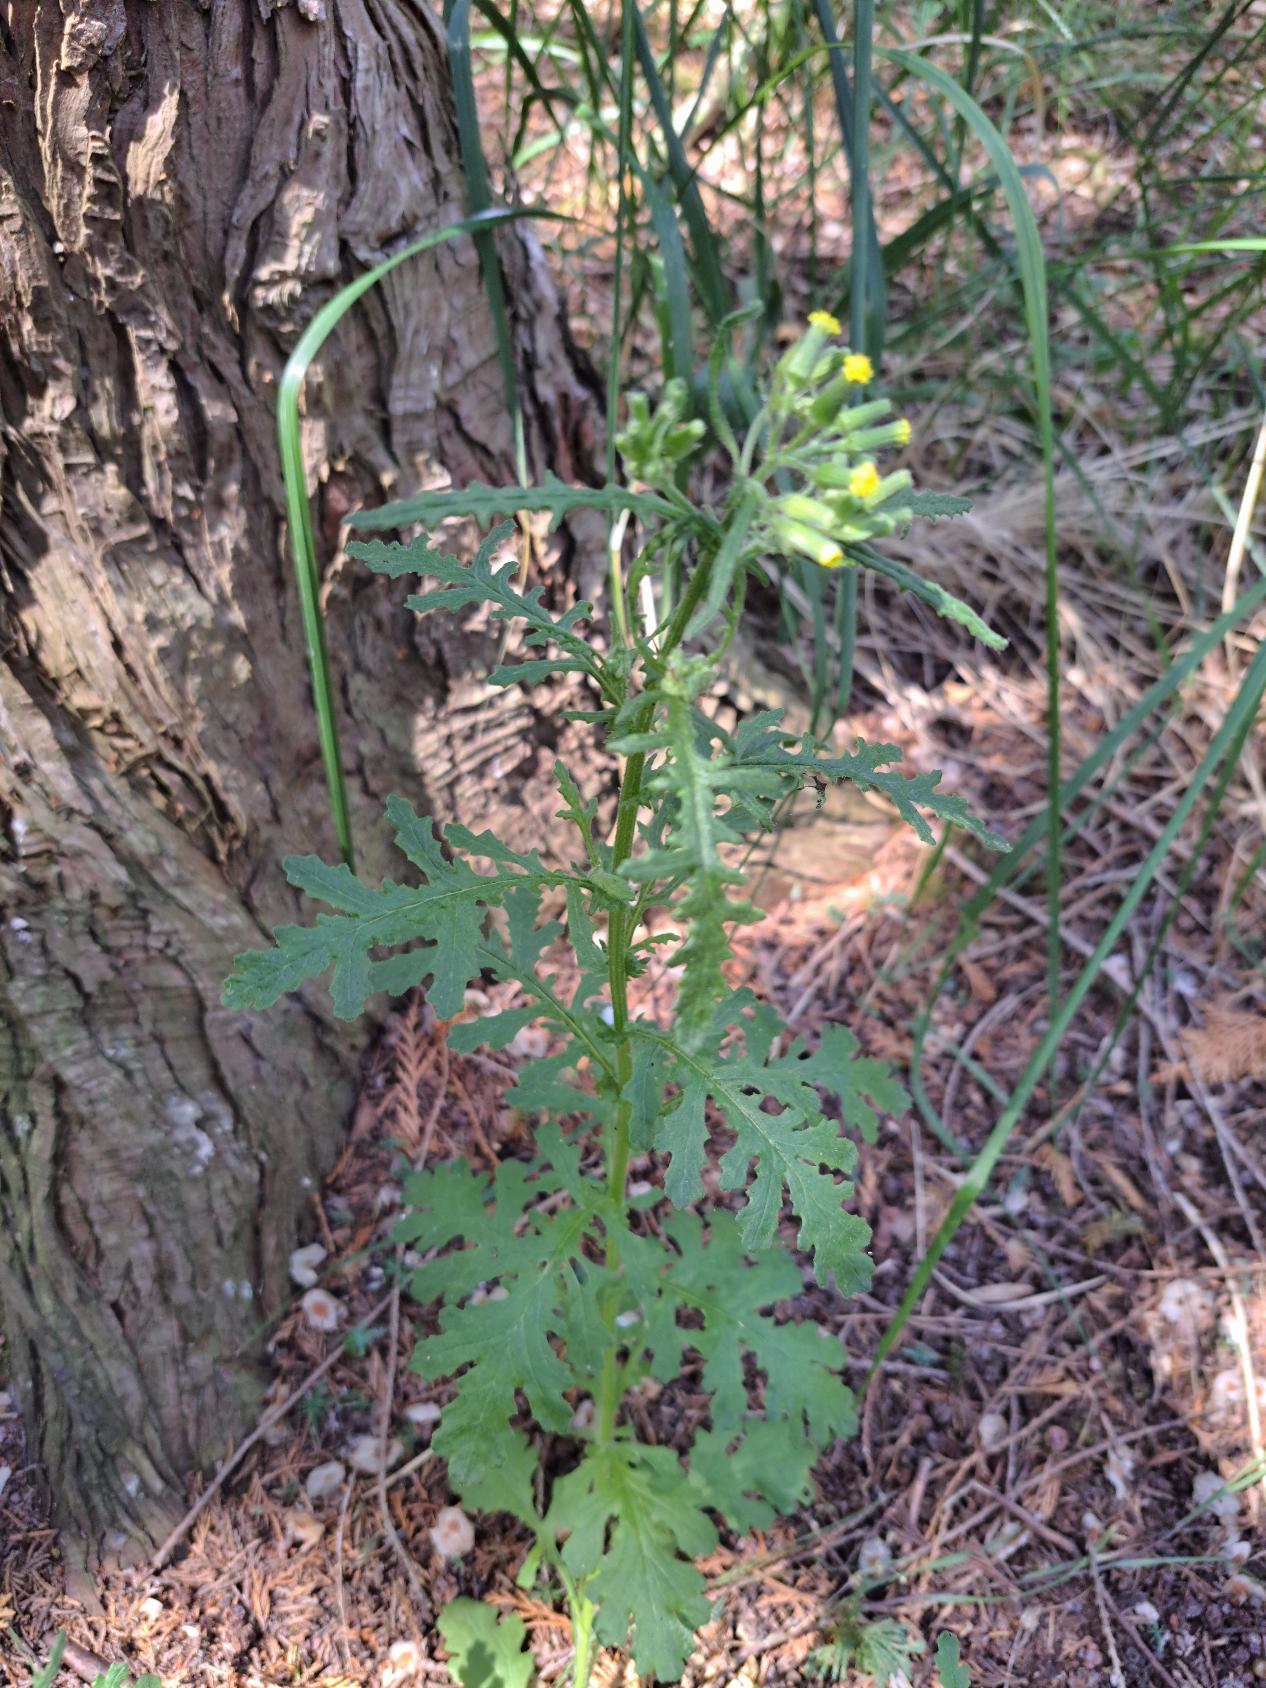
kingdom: Plantae
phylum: Tracheophyta
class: Magnoliopsida
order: Asterales
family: Asteraceae
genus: Senecio
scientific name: Senecio sylvaticus
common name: Skov-brandbæger
